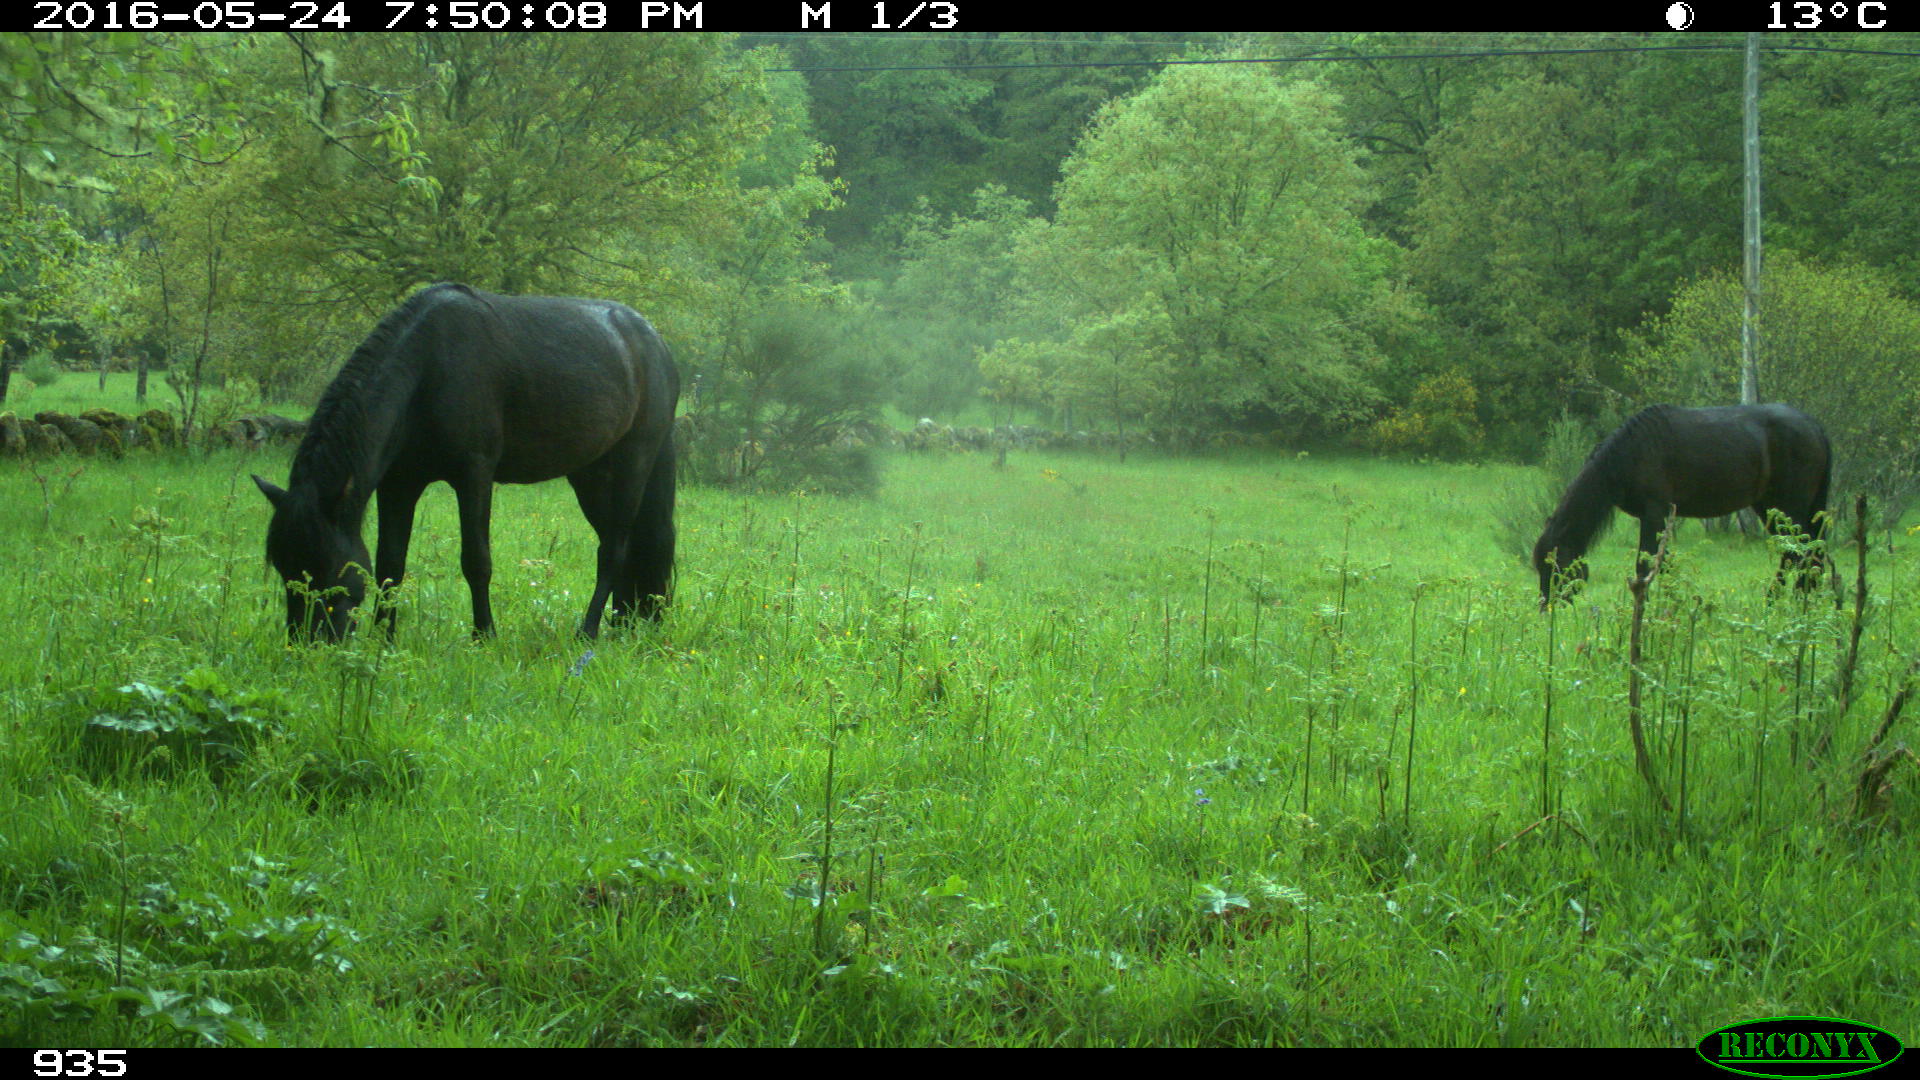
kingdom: Animalia
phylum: Chordata
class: Mammalia
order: Perissodactyla
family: Equidae
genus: Equus
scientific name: Equus caballus
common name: Horse
